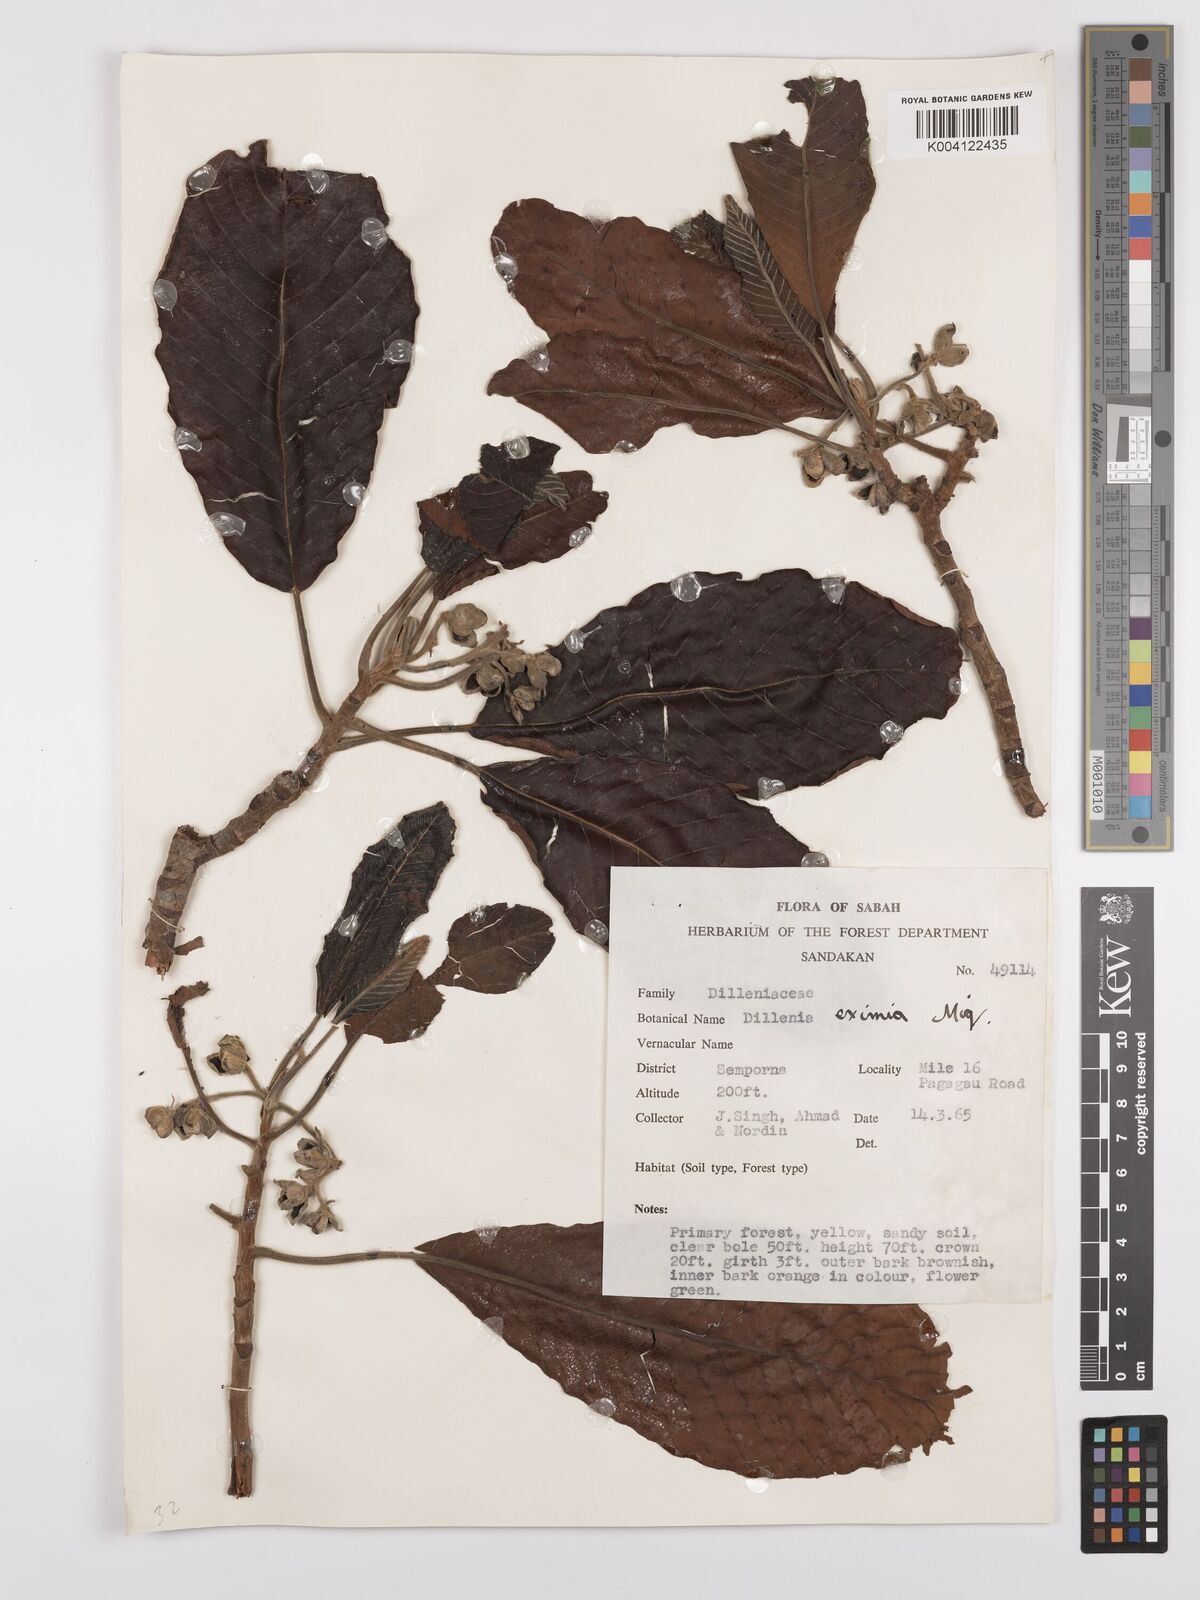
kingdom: Plantae
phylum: Tracheophyta
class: Magnoliopsida
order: Dilleniales
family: Dilleniaceae
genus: Dillenia
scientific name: Dillenia grandifolia
